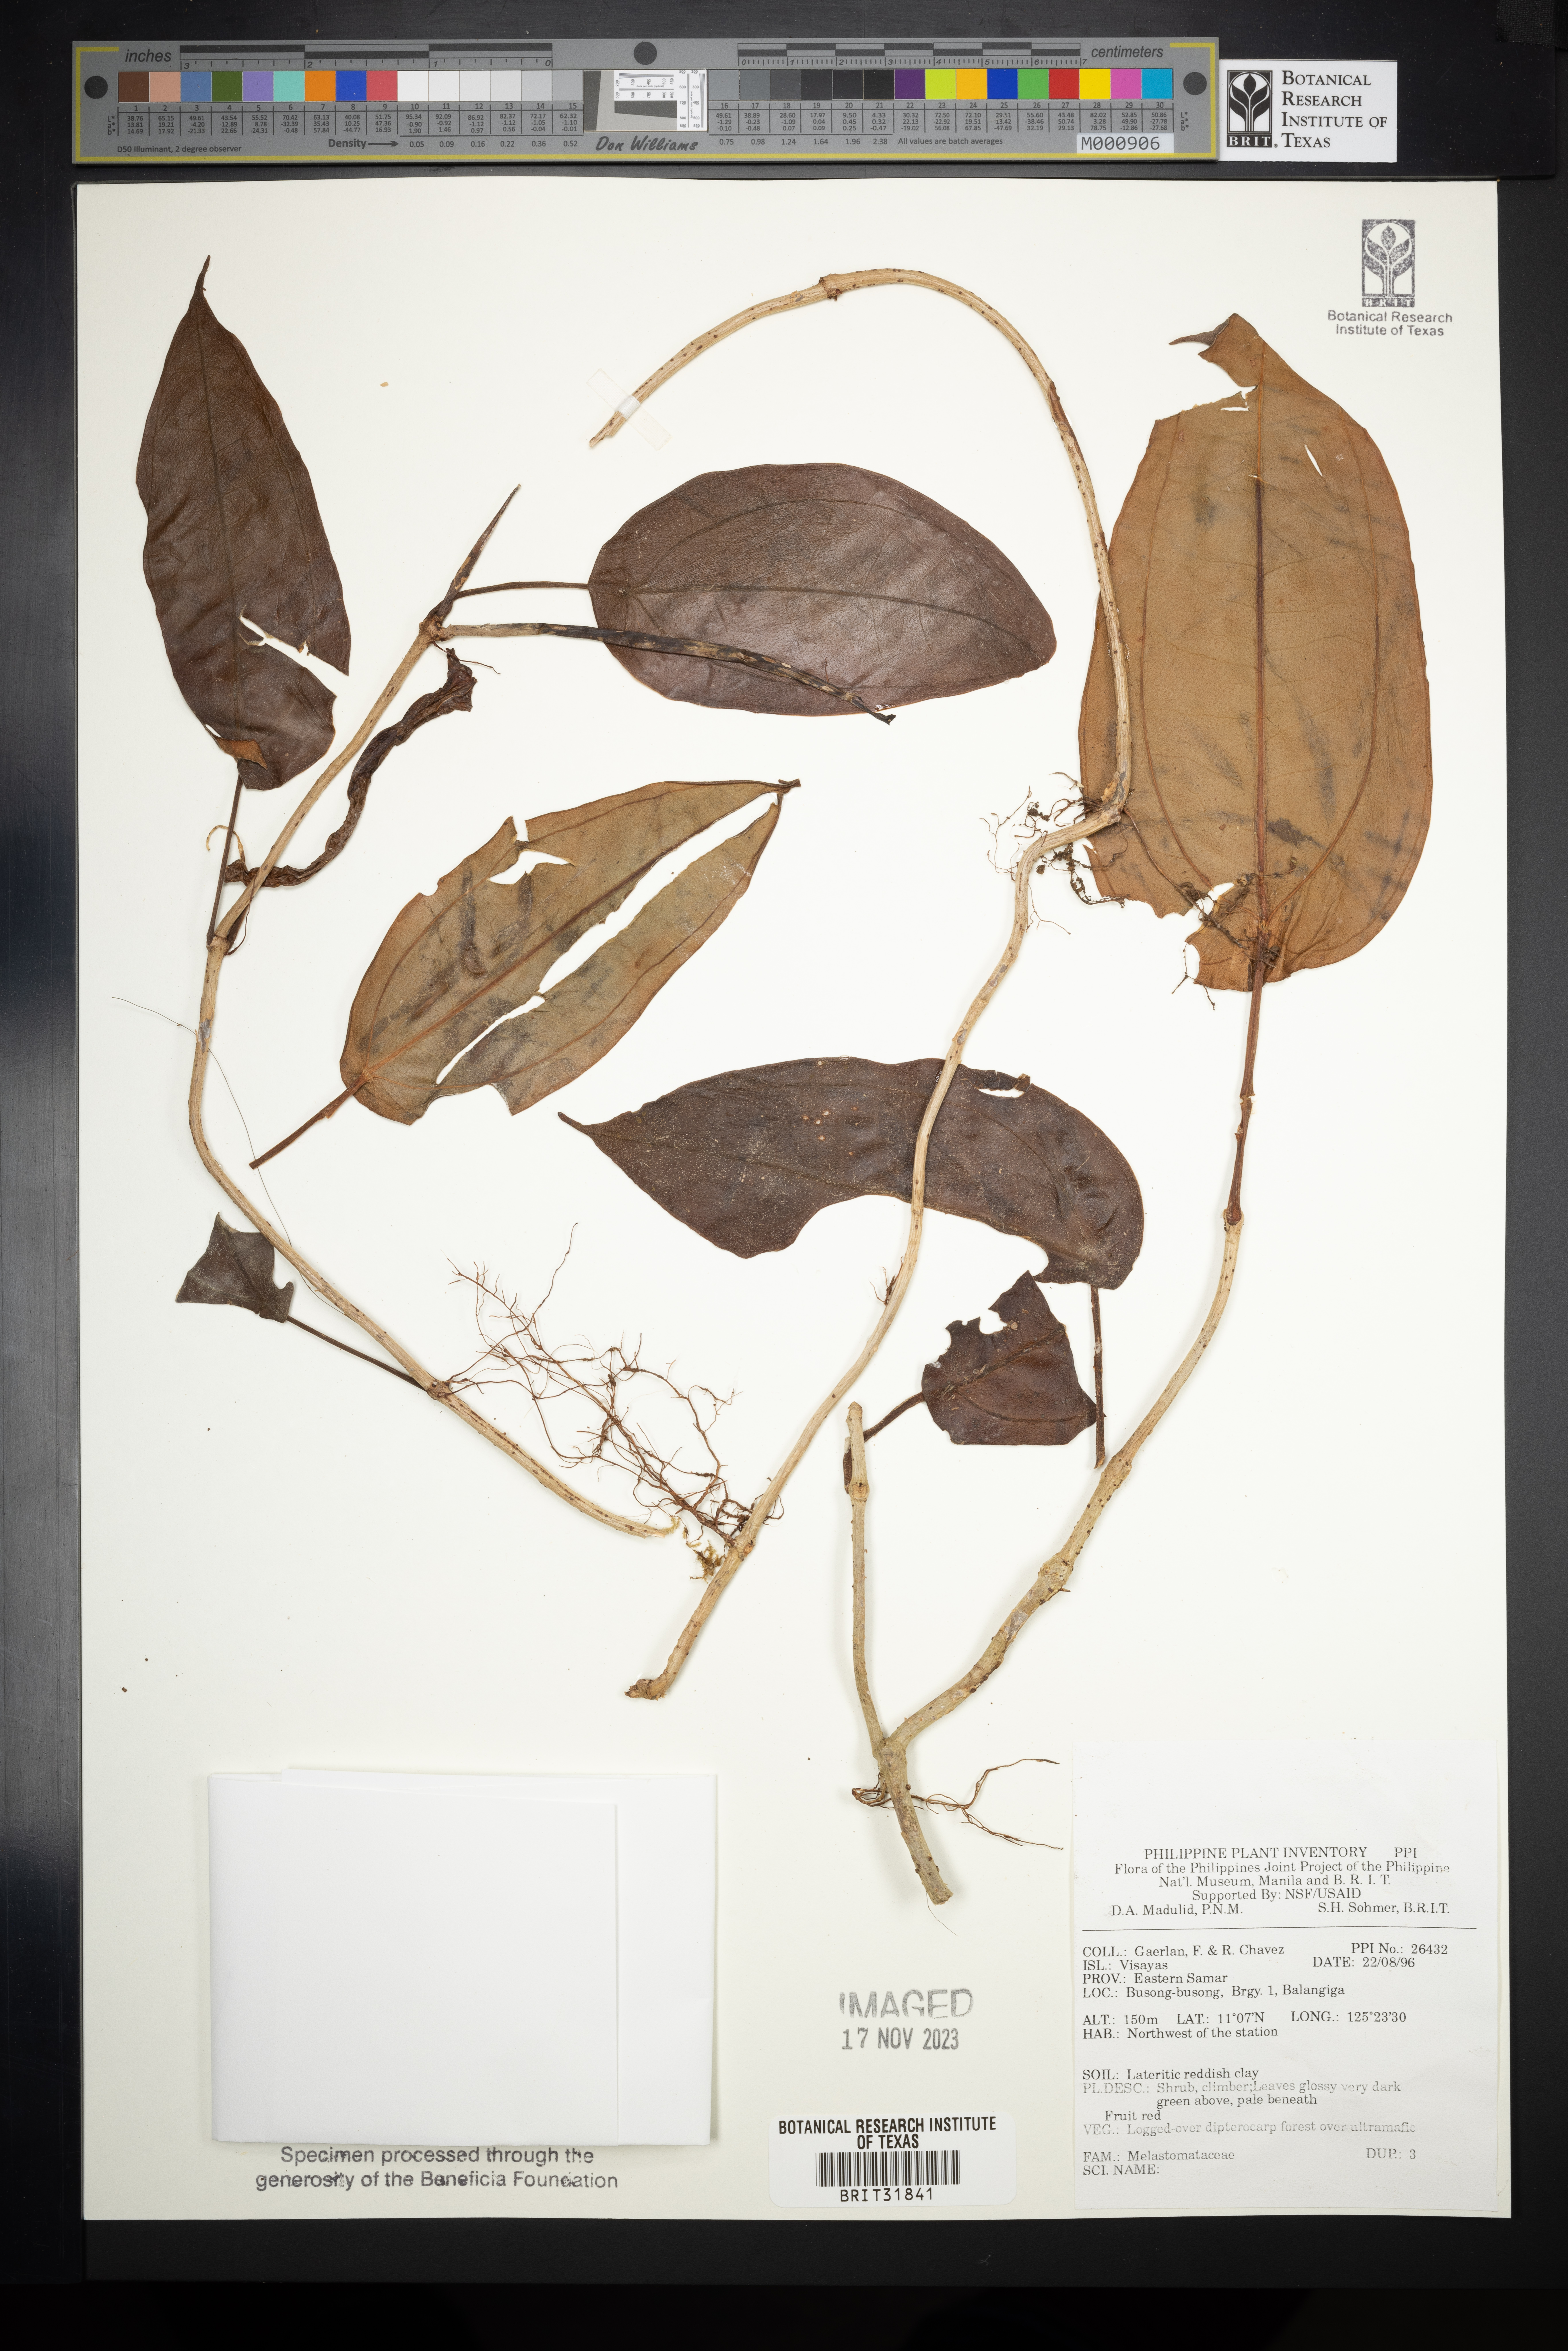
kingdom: Plantae
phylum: Tracheophyta
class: Magnoliopsida
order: Myrtales
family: Melastomataceae
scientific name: Melastomataceae
